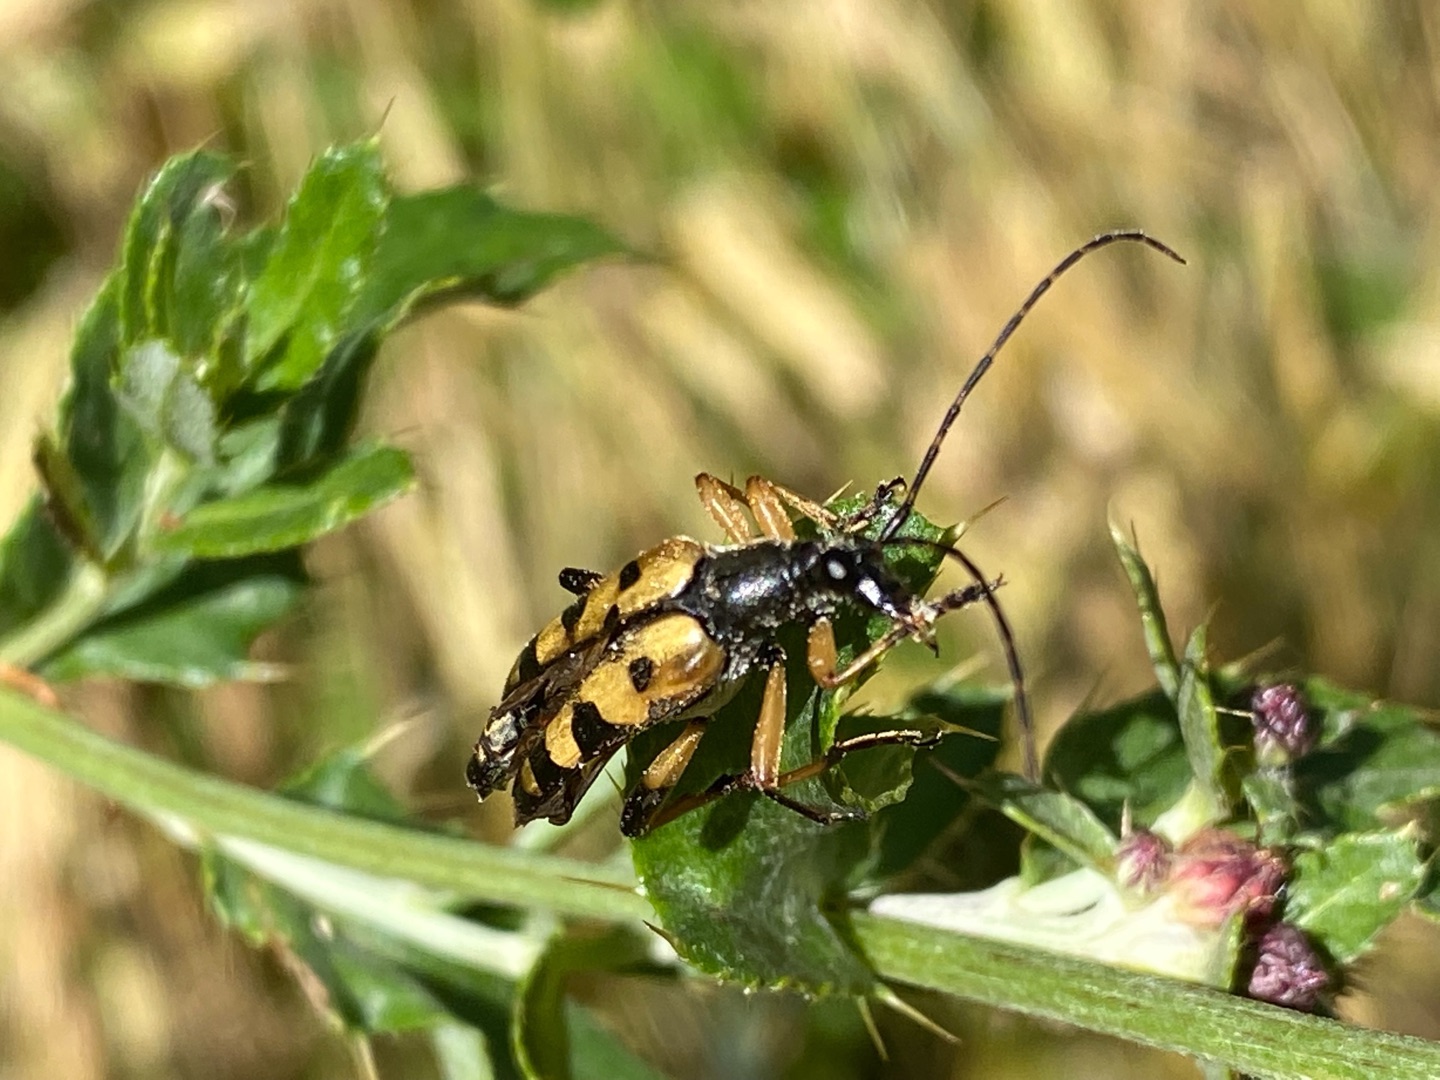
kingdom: Animalia
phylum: Arthropoda
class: Insecta
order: Coleoptera
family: Cerambycidae
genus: Rutpela
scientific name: Rutpela maculata
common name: Sydlig blomsterbuk
